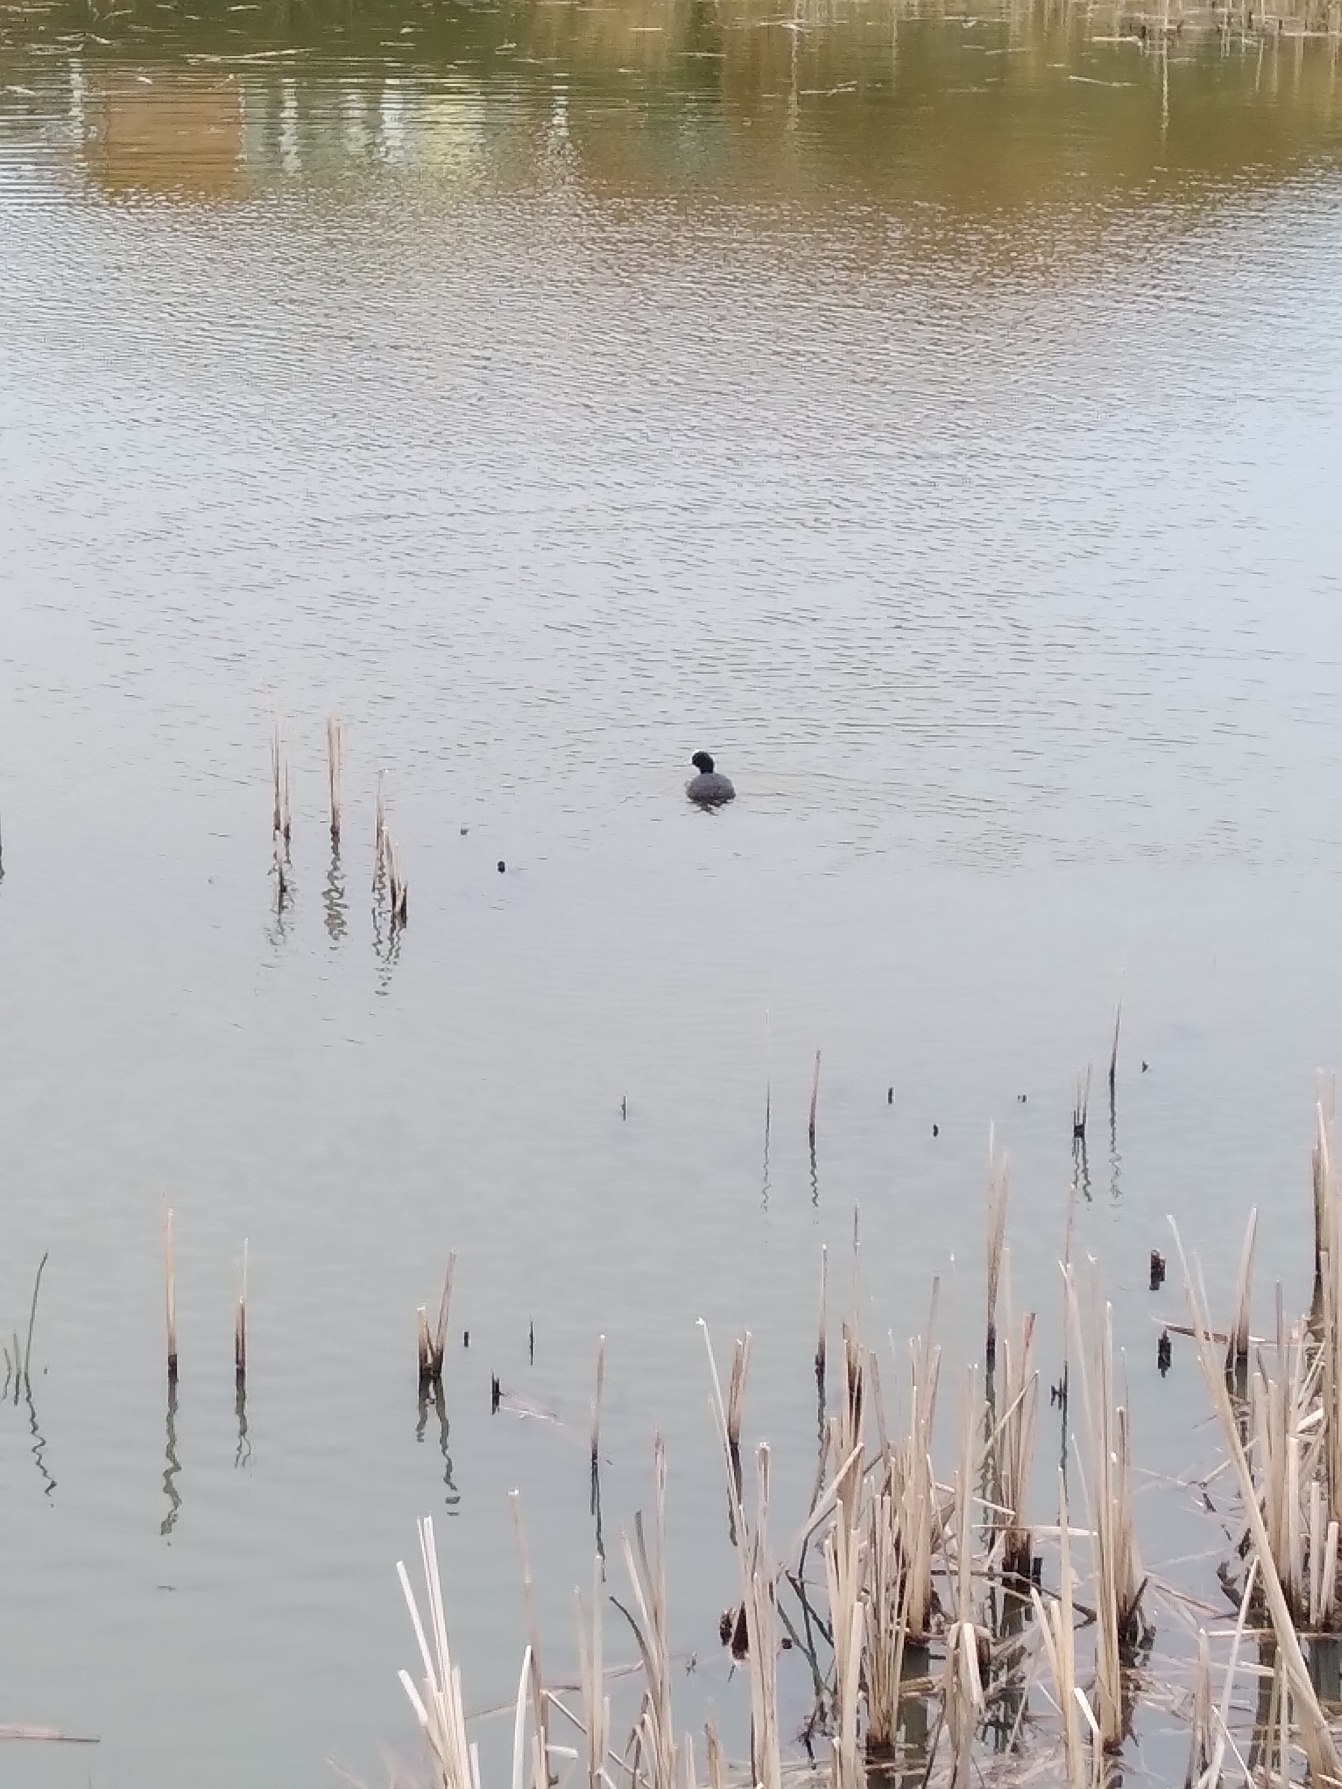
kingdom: Animalia
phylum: Chordata
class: Aves
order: Gruiformes
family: Rallidae
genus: Fulica
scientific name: Fulica atra
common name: Blishøne
